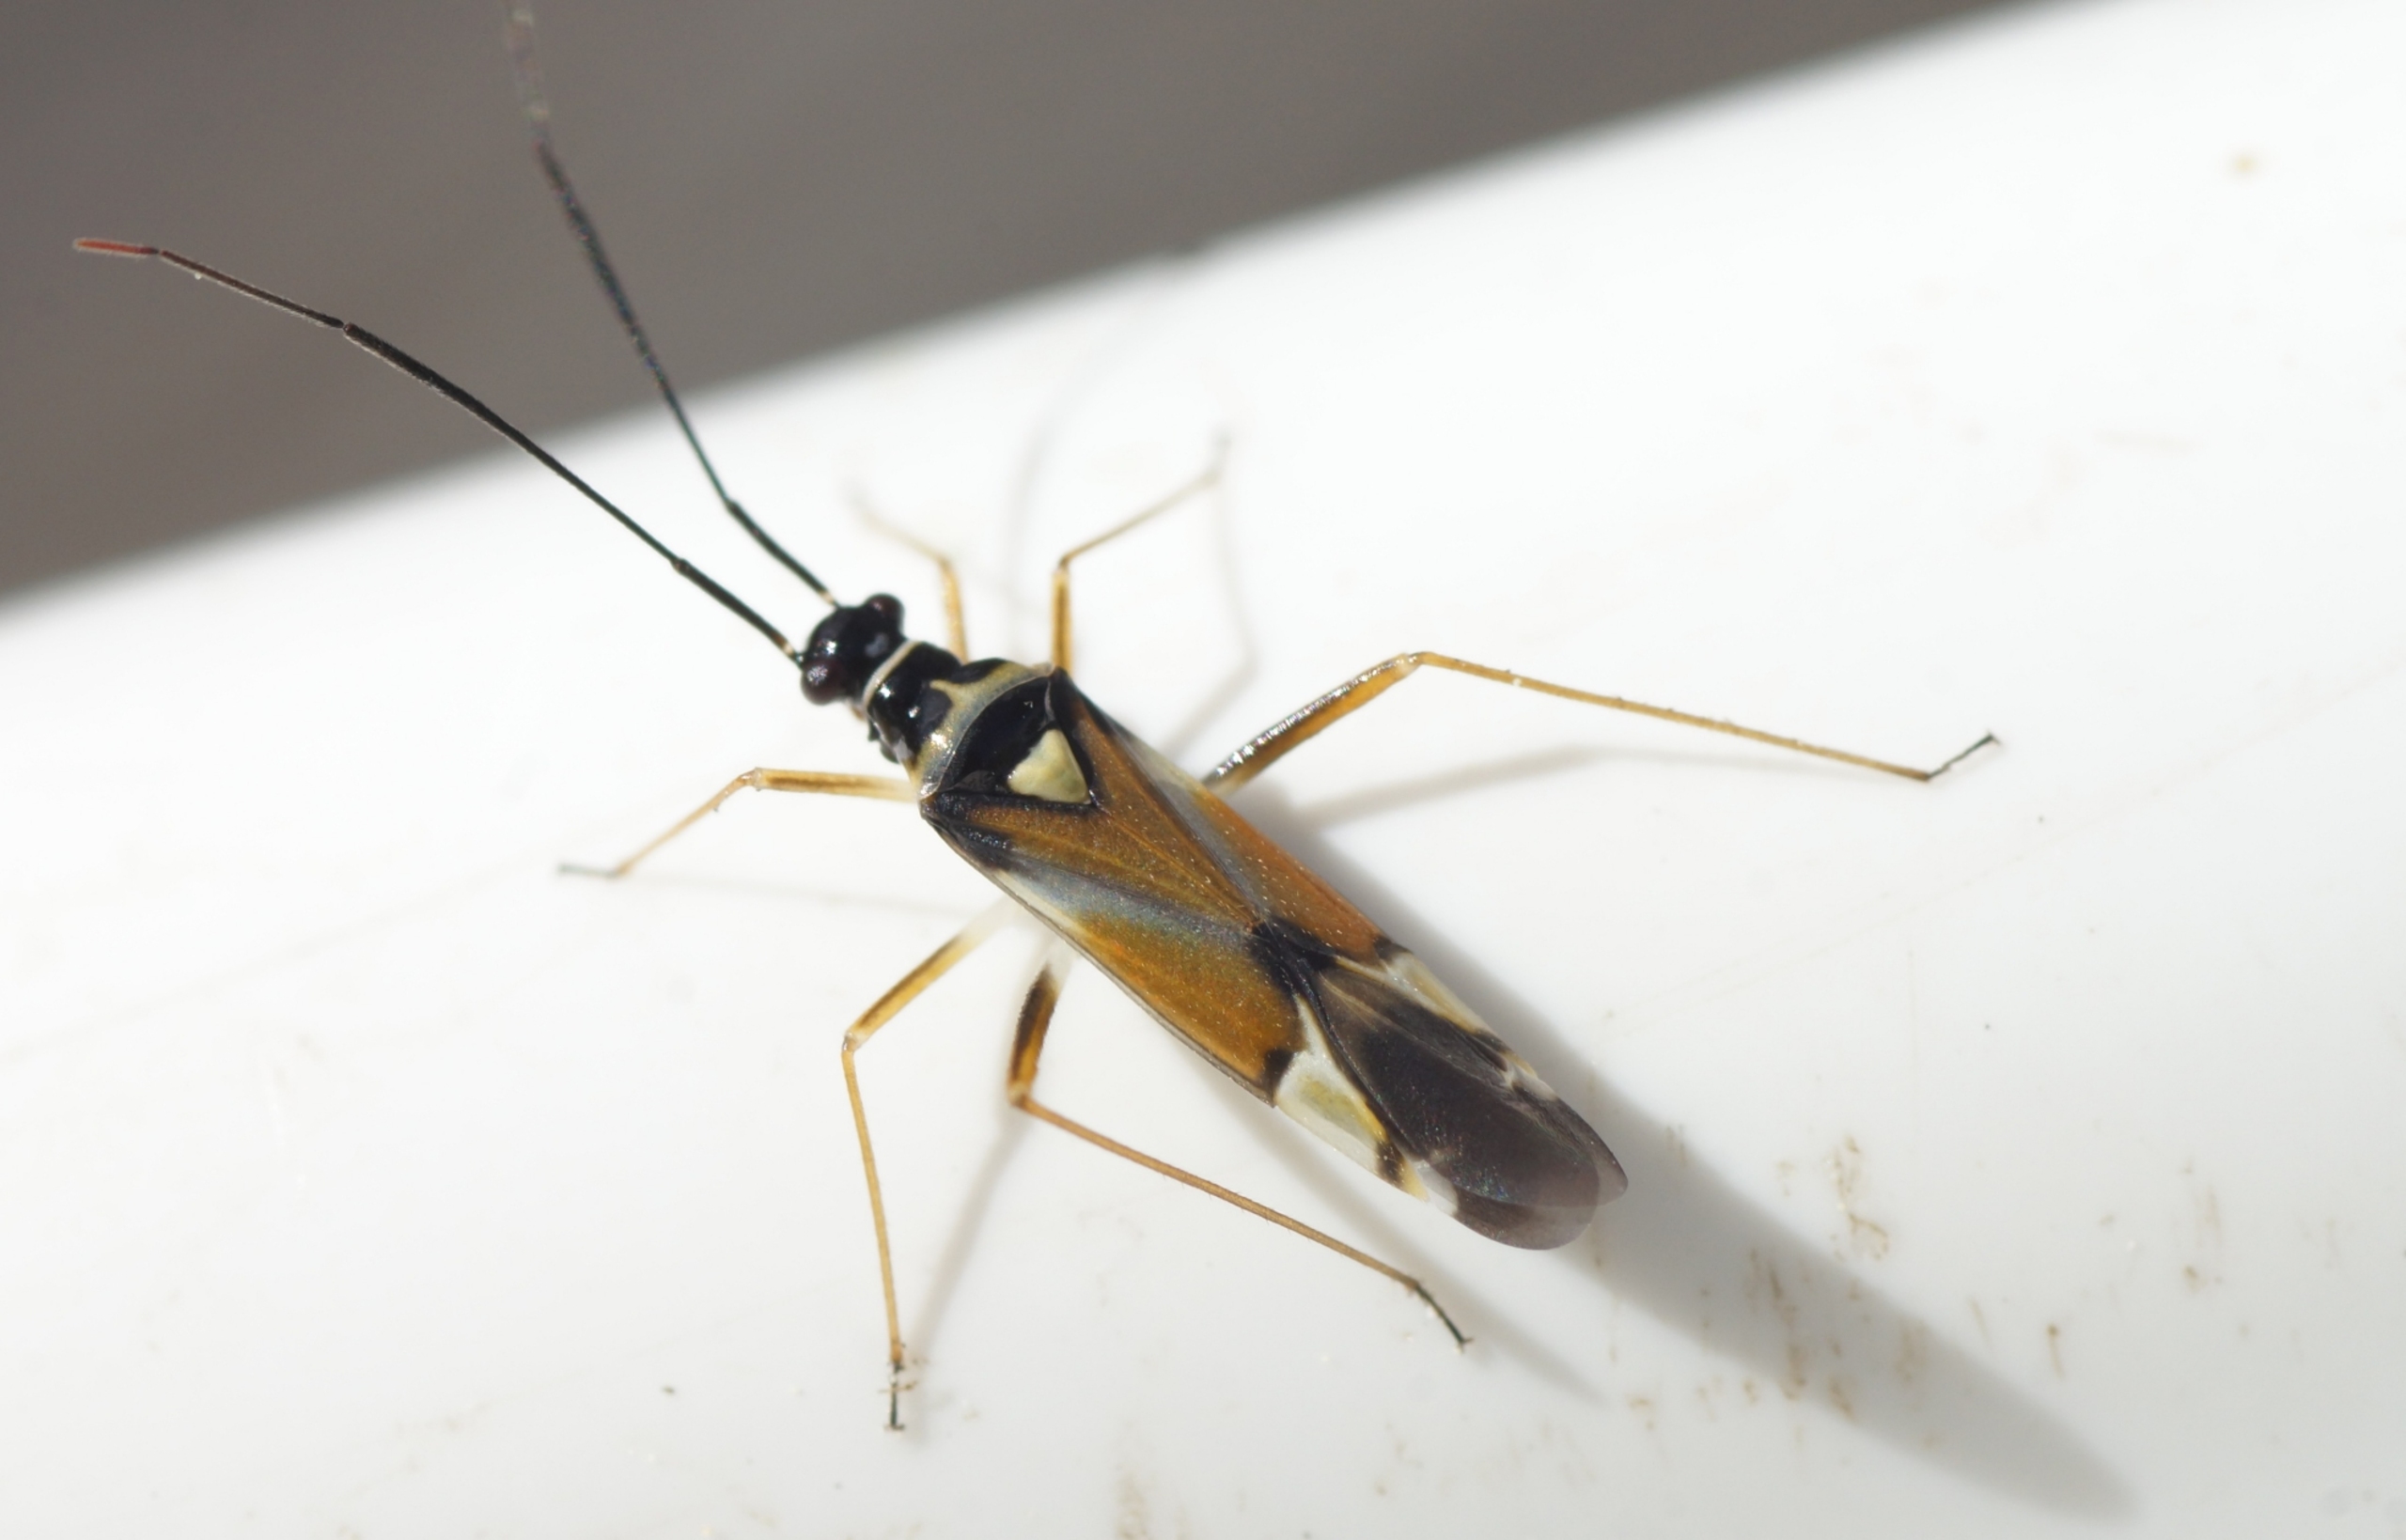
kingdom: Animalia
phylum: Arthropoda
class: Insecta
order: Hemiptera
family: Miridae
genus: Cyllecoris
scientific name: Cyllecoris histrionius
